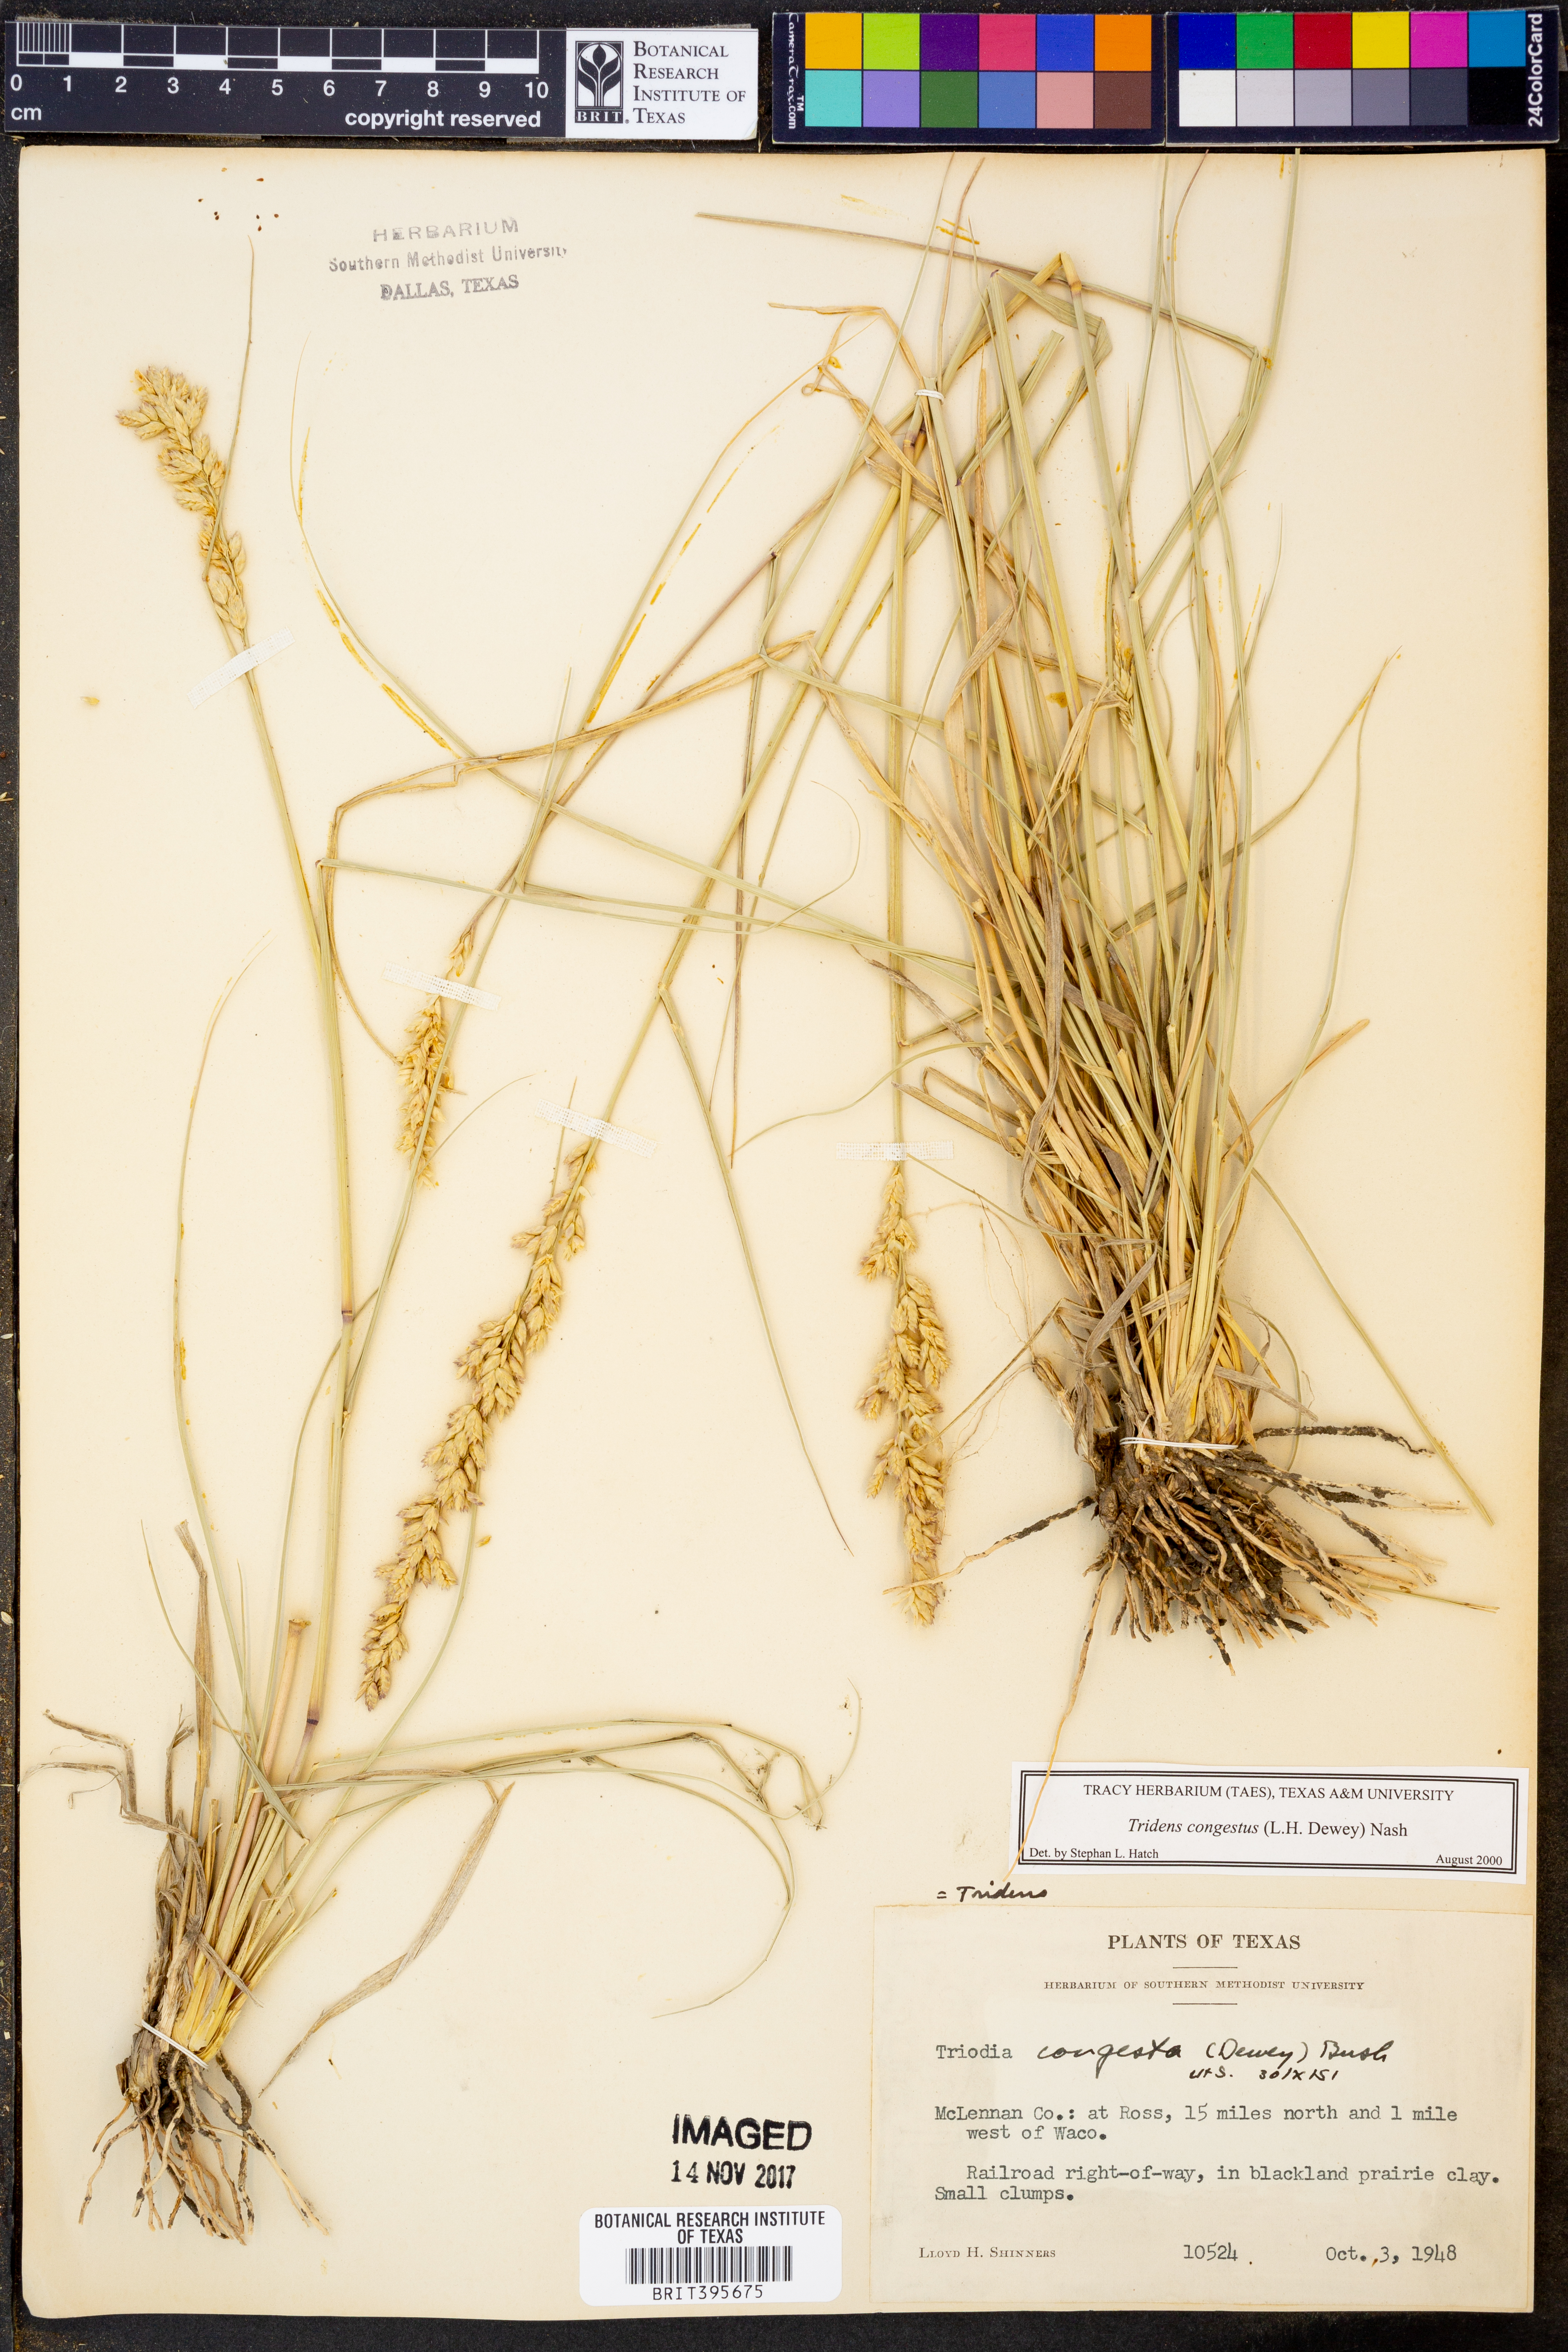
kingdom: Plantae
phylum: Tracheophyta
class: Liliopsida
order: Poales
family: Poaceae
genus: Tridens
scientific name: Tridens congestus
